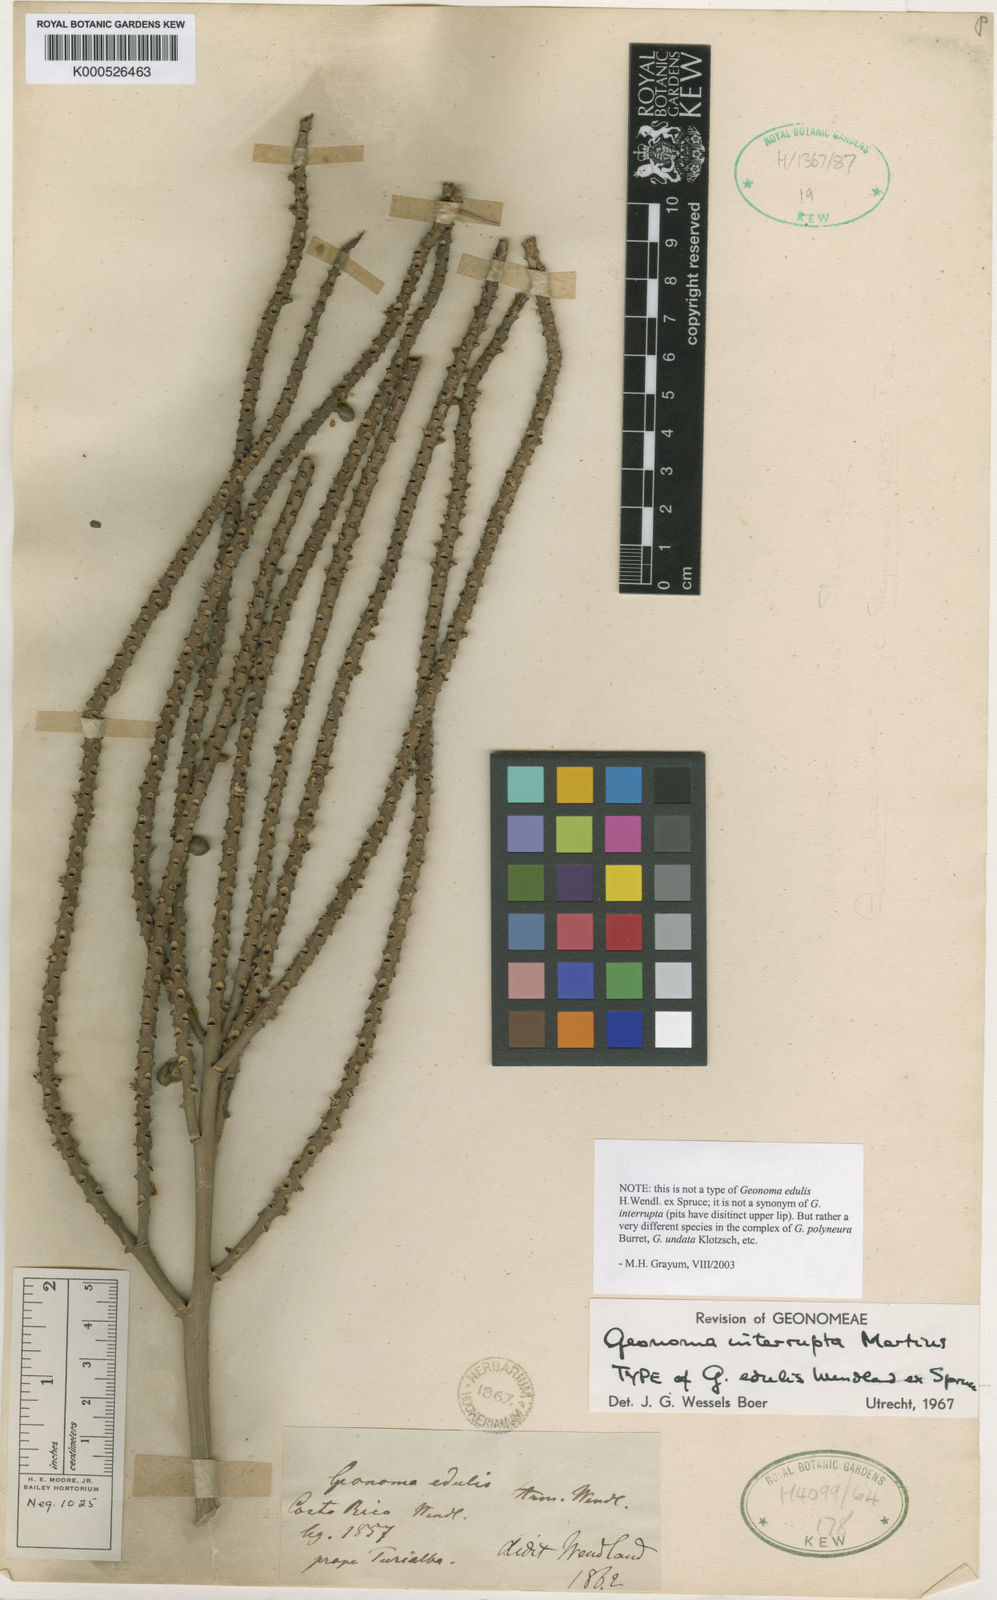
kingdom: Plantae
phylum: Tracheophyta
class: Liliopsida
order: Arecales
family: Arecaceae
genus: Geonoma
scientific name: Geonoma interrupta
